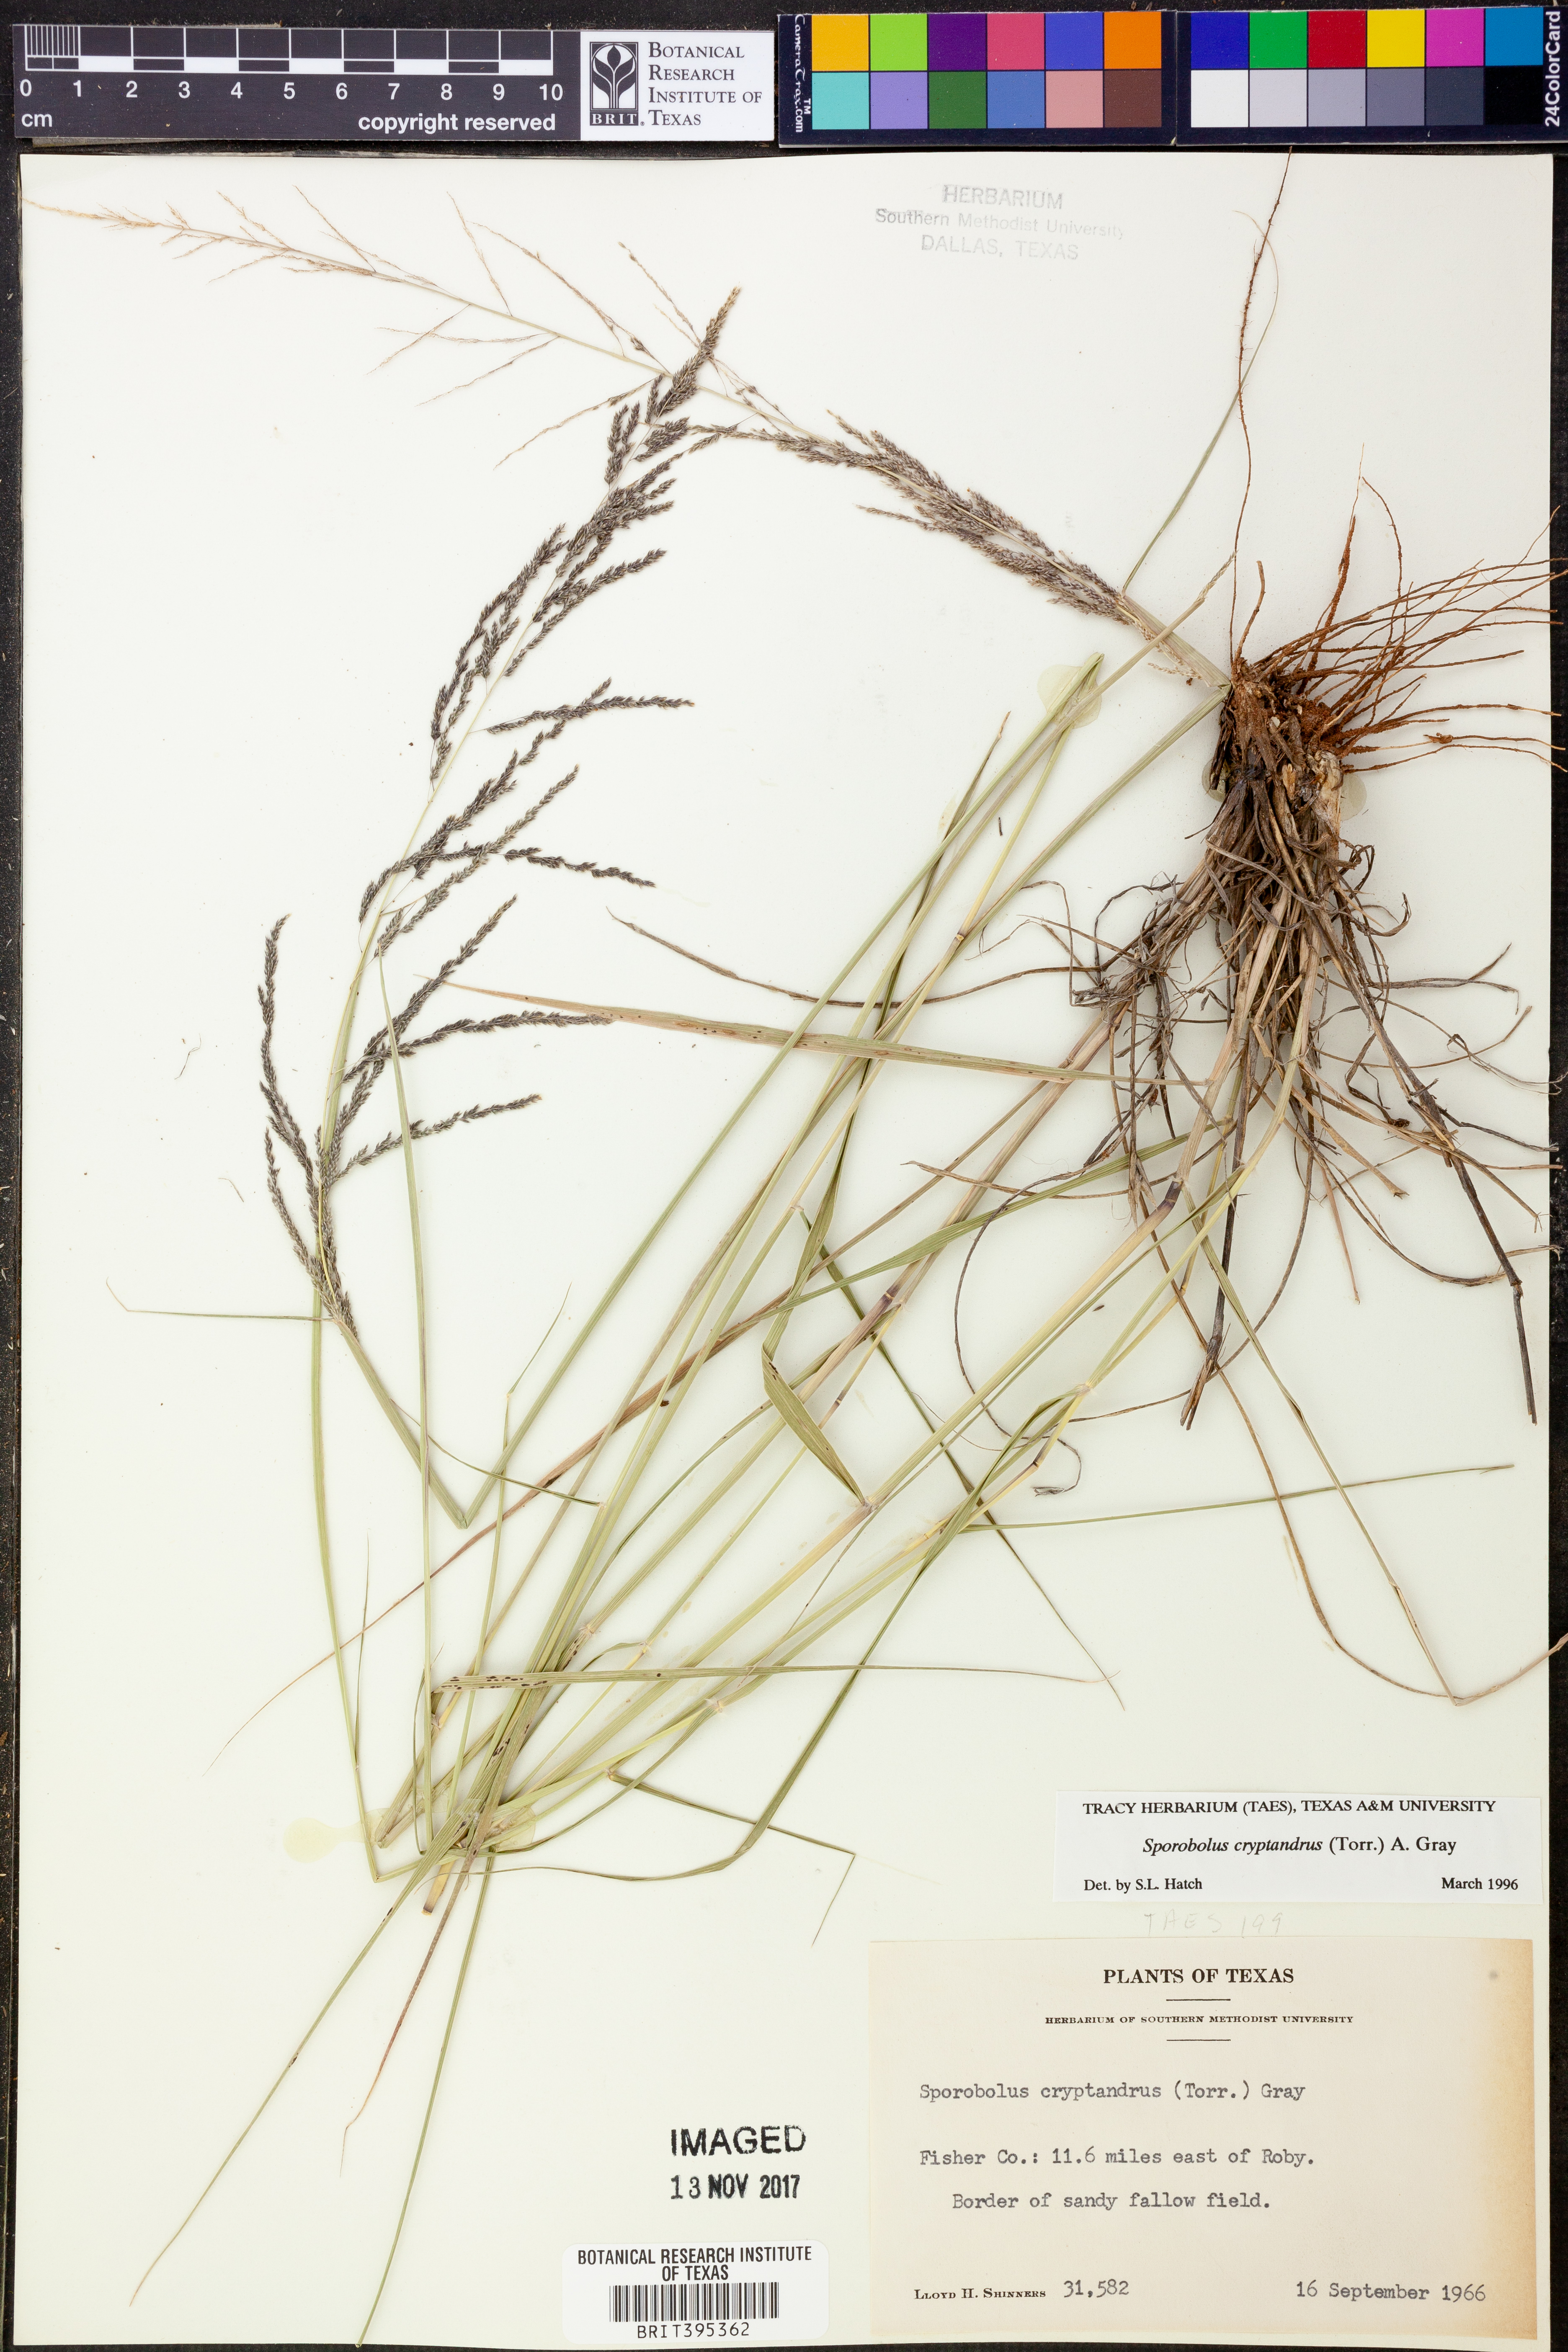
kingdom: Plantae
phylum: Tracheophyta
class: Liliopsida
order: Poales
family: Poaceae
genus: Sporobolus
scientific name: Sporobolus cryptandrus
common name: Sand dropseed
